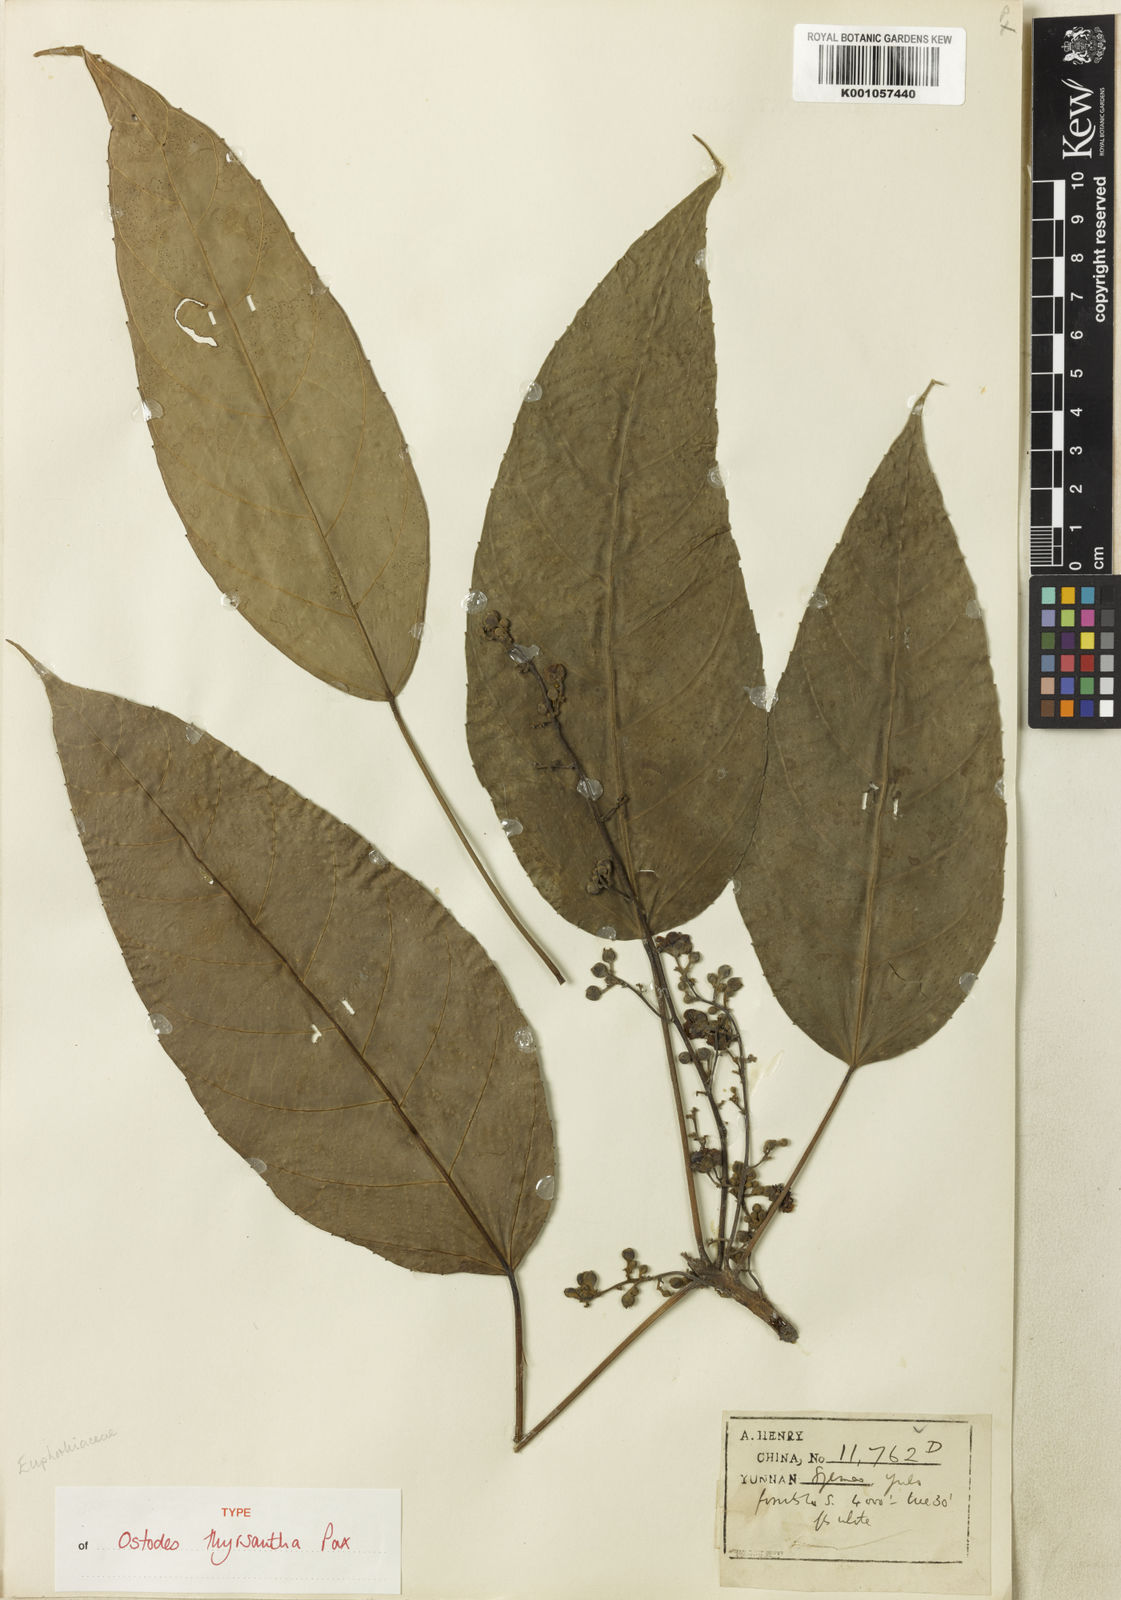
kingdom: Plantae
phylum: Tracheophyta
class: Magnoliopsida
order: Malpighiales
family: Euphorbiaceae
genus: Ostodes
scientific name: Ostodes paniculata
